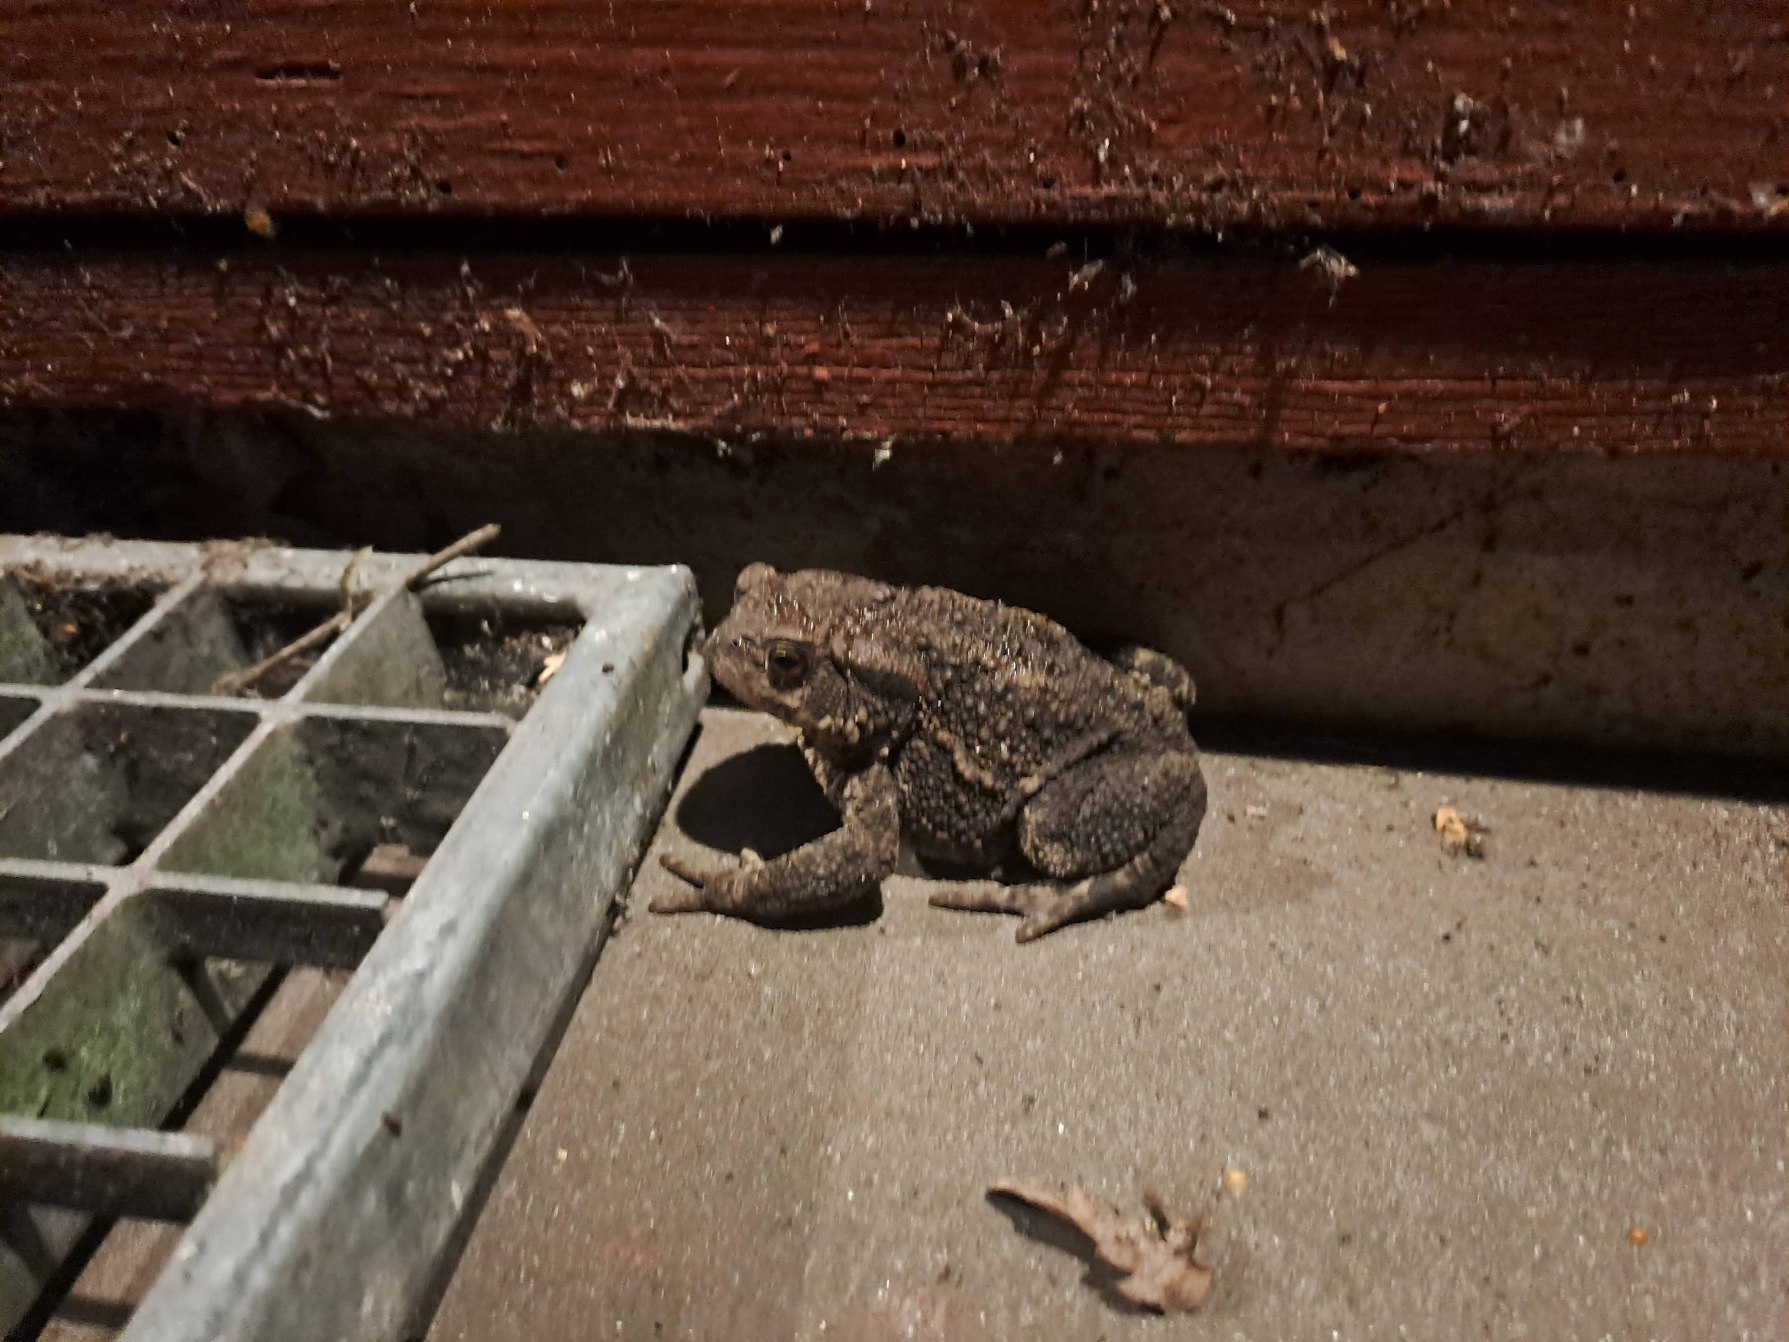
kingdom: Animalia
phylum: Chordata
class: Amphibia
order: Anura
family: Bufonidae
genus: Bufo
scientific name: Bufo bufo
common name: Skrubtudse
